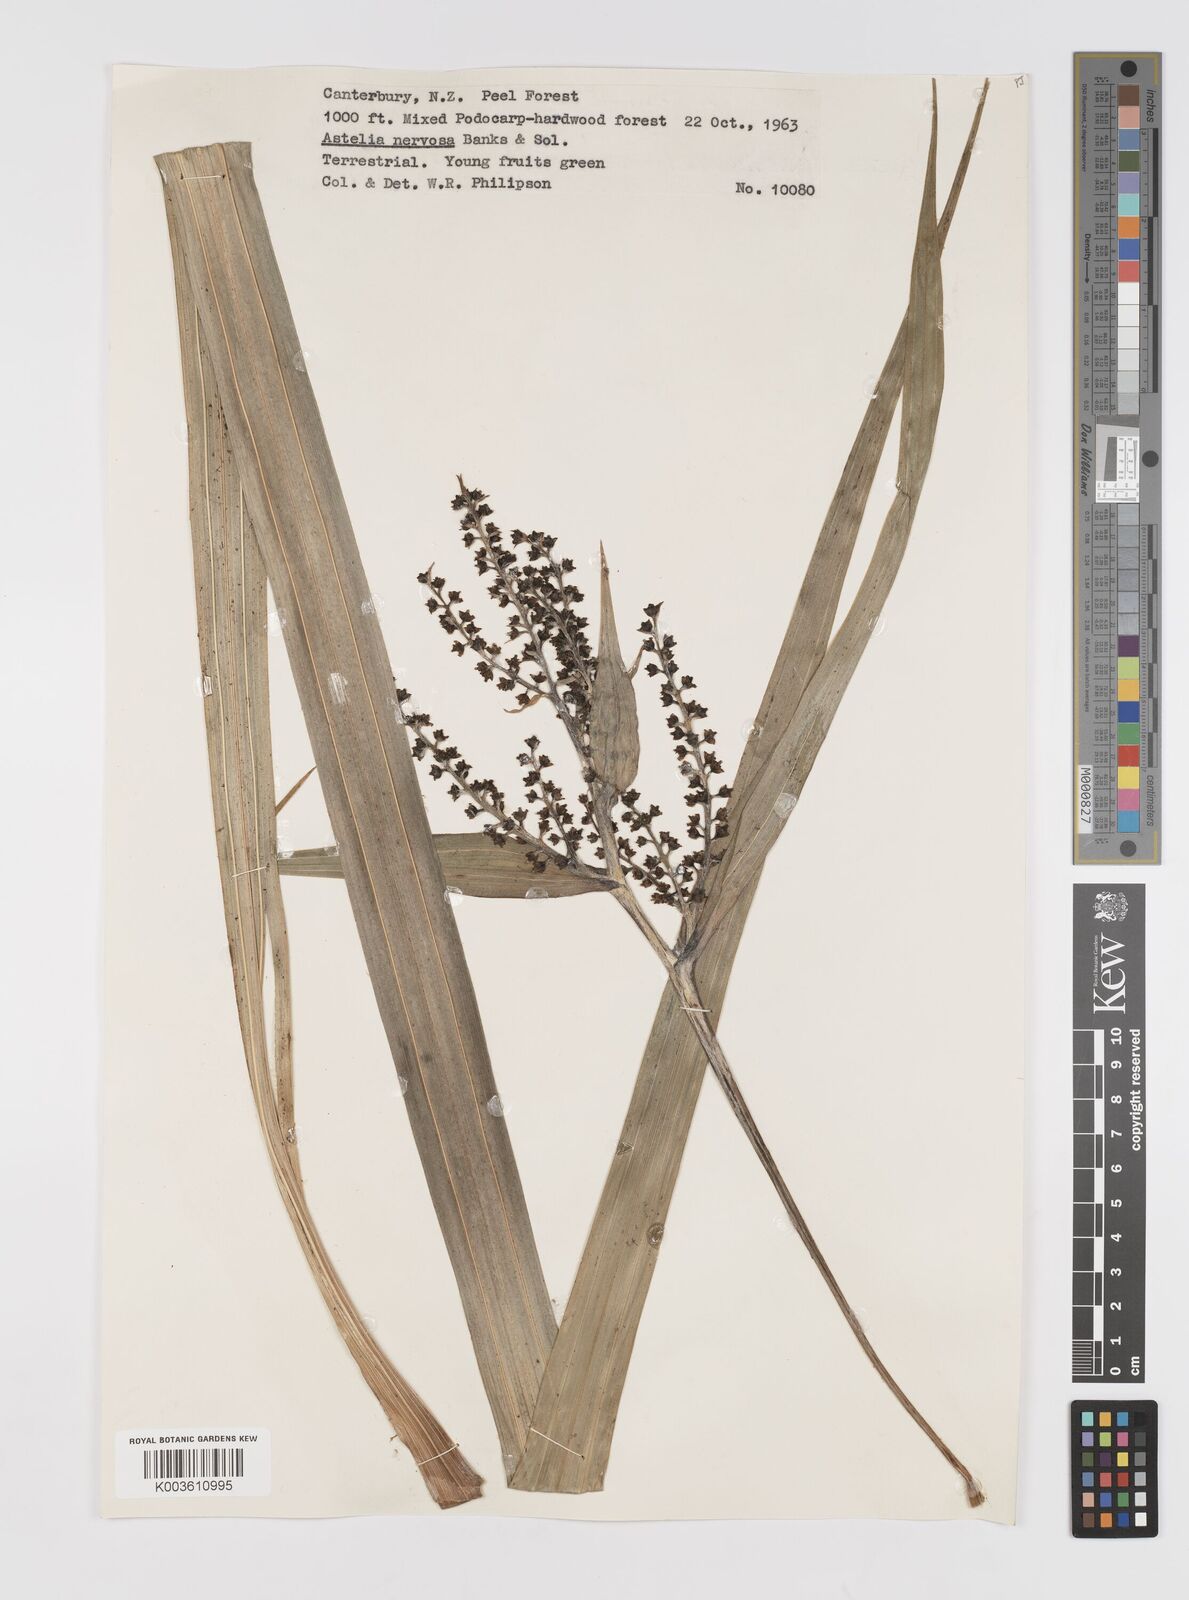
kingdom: Plantae
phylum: Tracheophyta
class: Liliopsida
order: Asparagales
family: Asteliaceae
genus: Astelia
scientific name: Astelia nervosa
